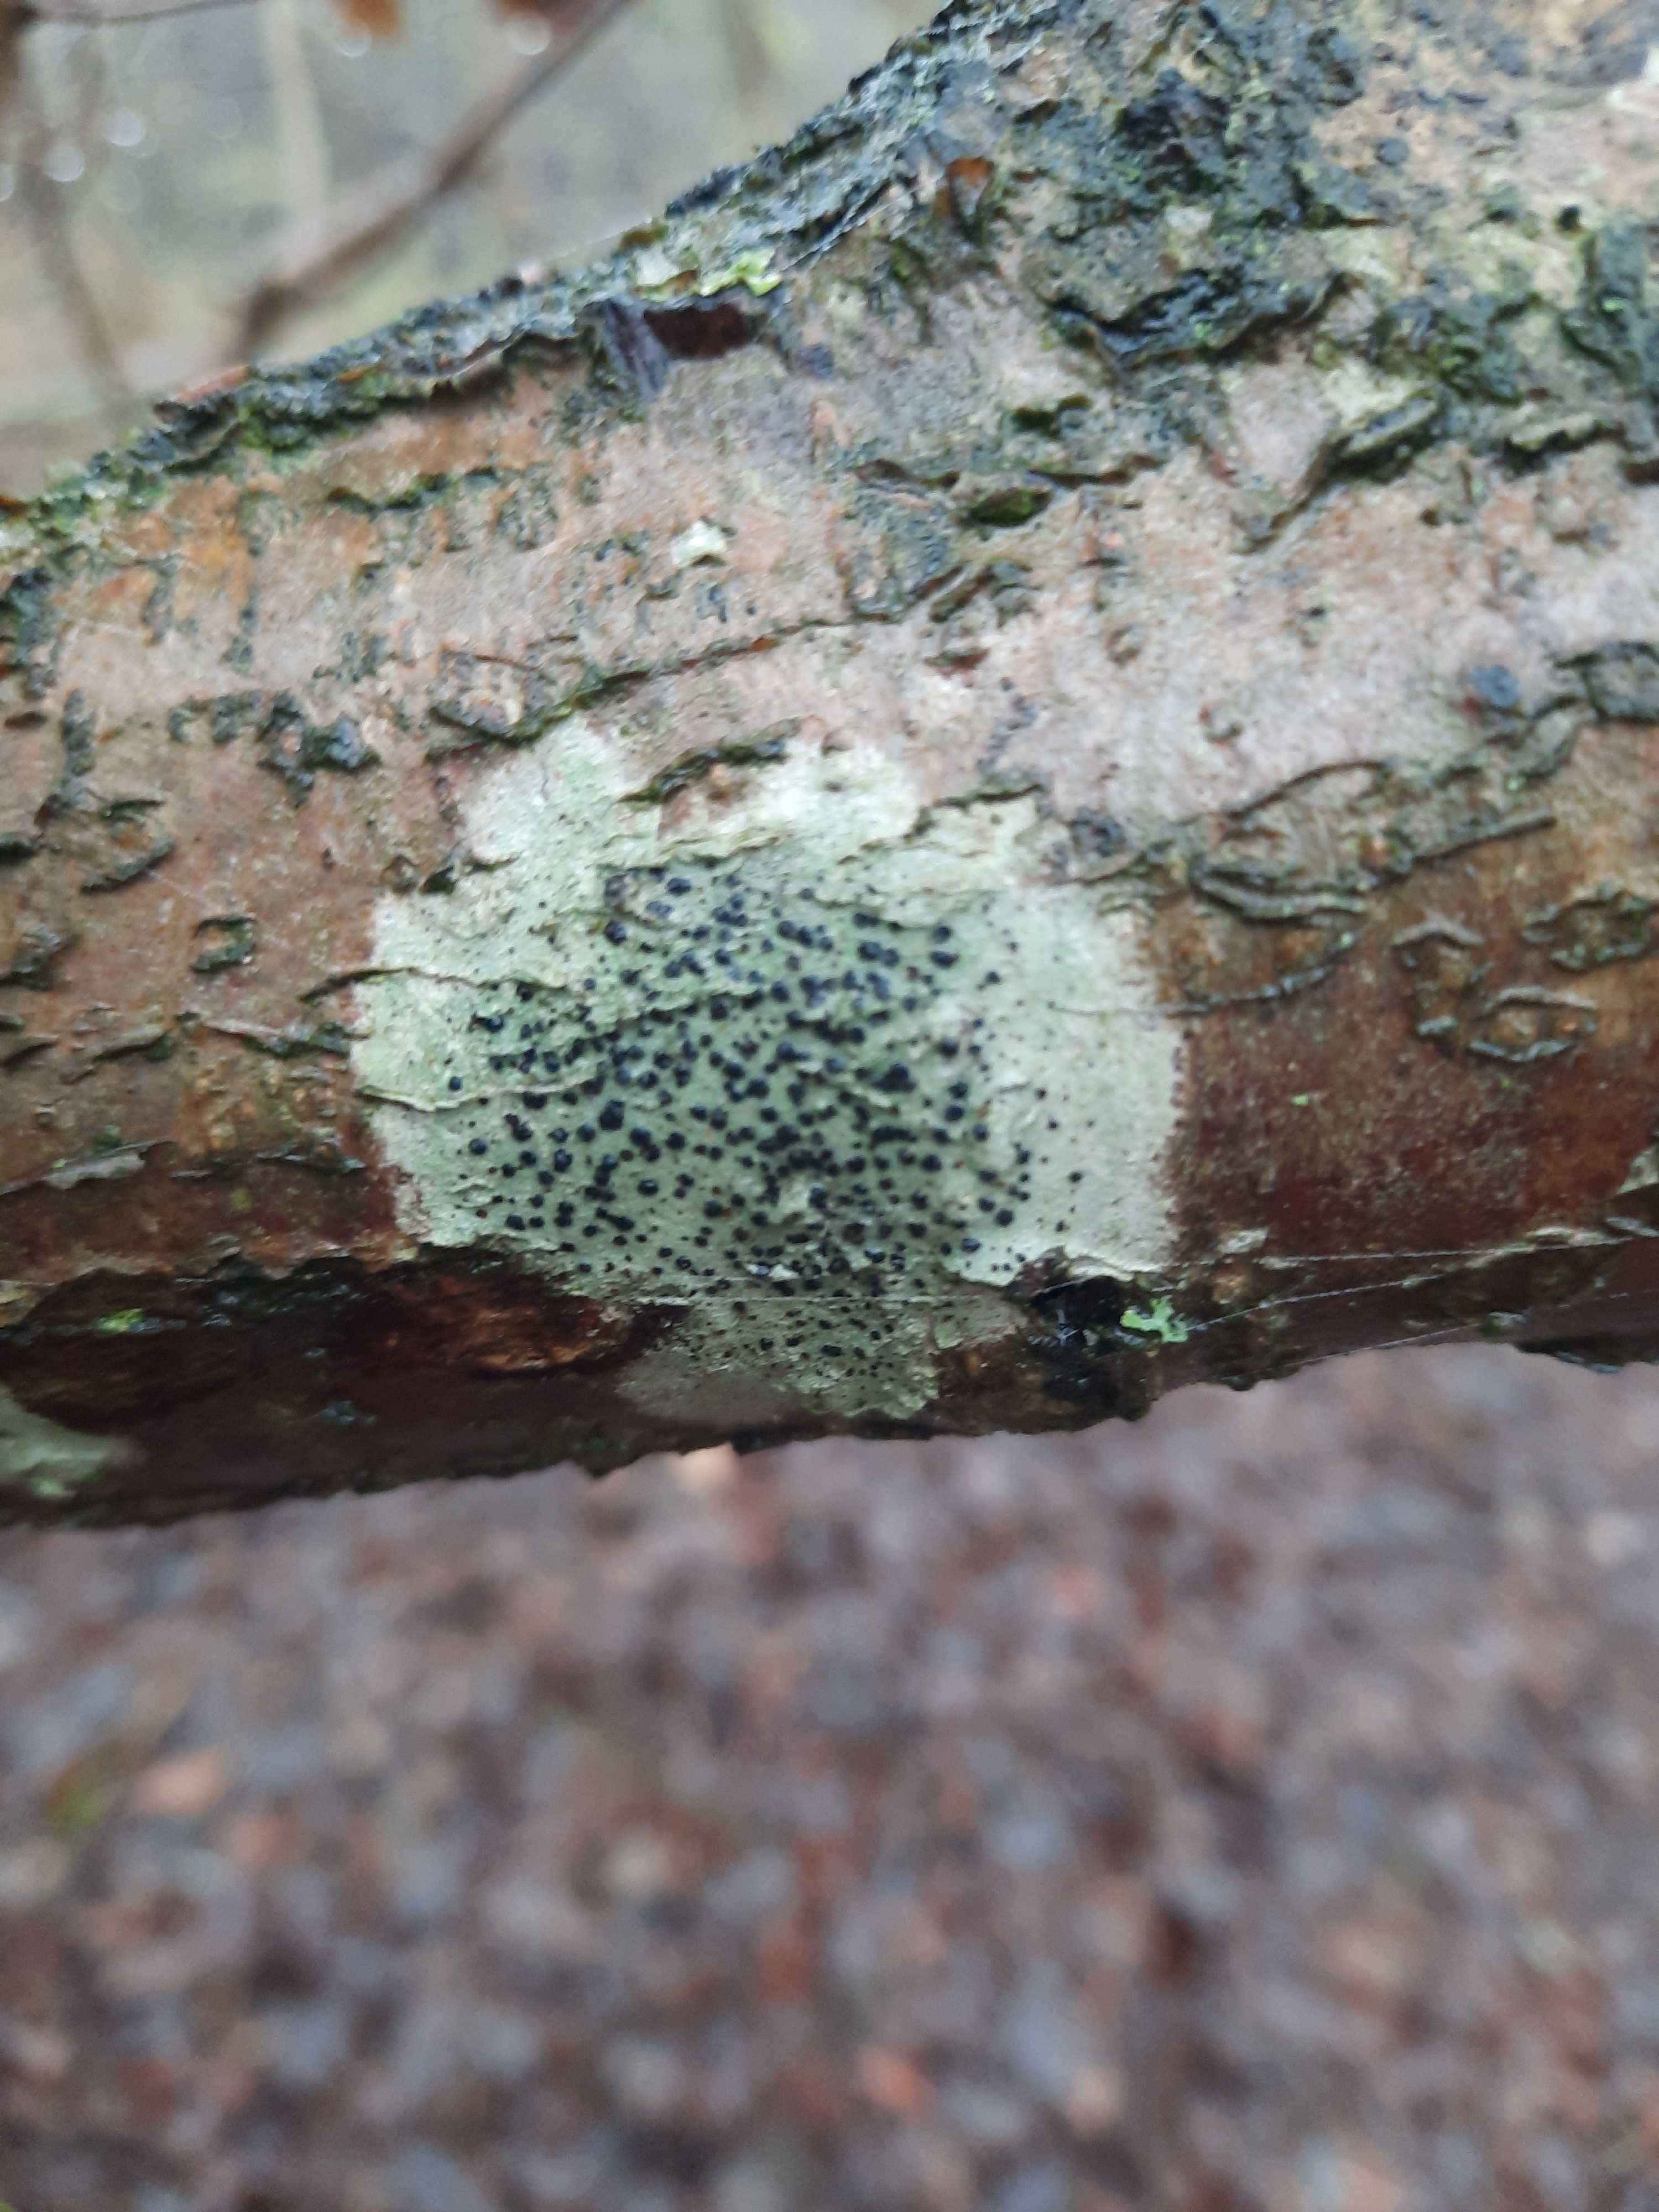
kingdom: Fungi
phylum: Ascomycota
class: Lecanoromycetes
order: Lecanorales
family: Lecanoraceae
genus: Lecidella
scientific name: Lecidella elaeochroma
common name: grågrøn skivelav
